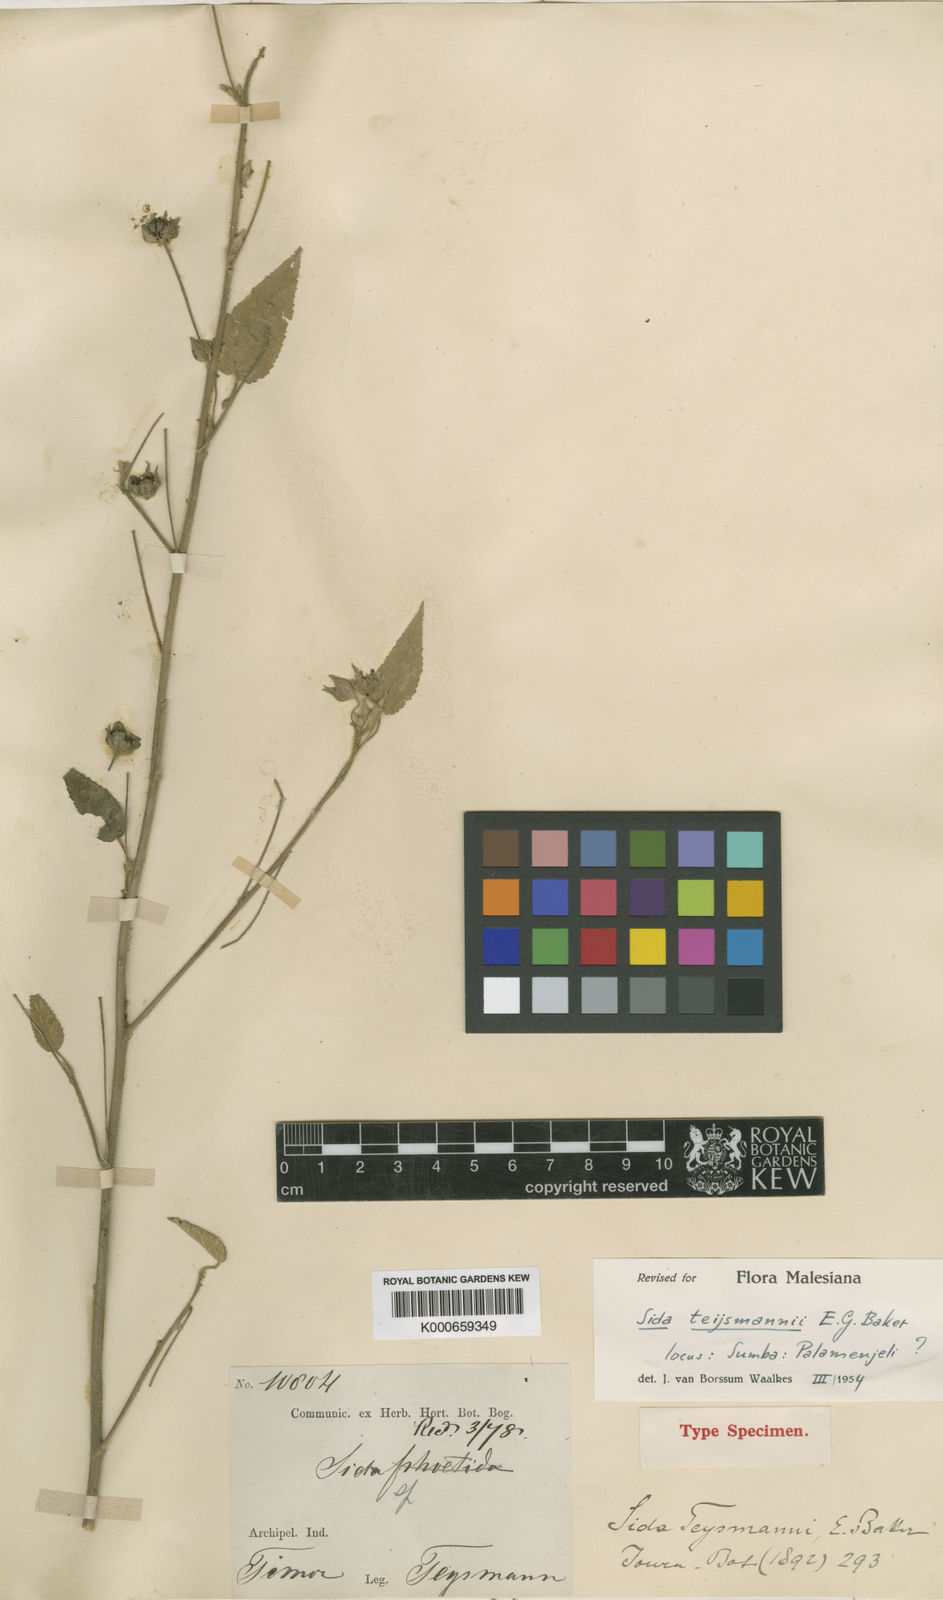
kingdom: Plantae
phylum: Tracheophyta
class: Magnoliopsida
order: Malvales
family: Malvaceae
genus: Sida
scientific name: Sida cordifolia
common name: Ilima
